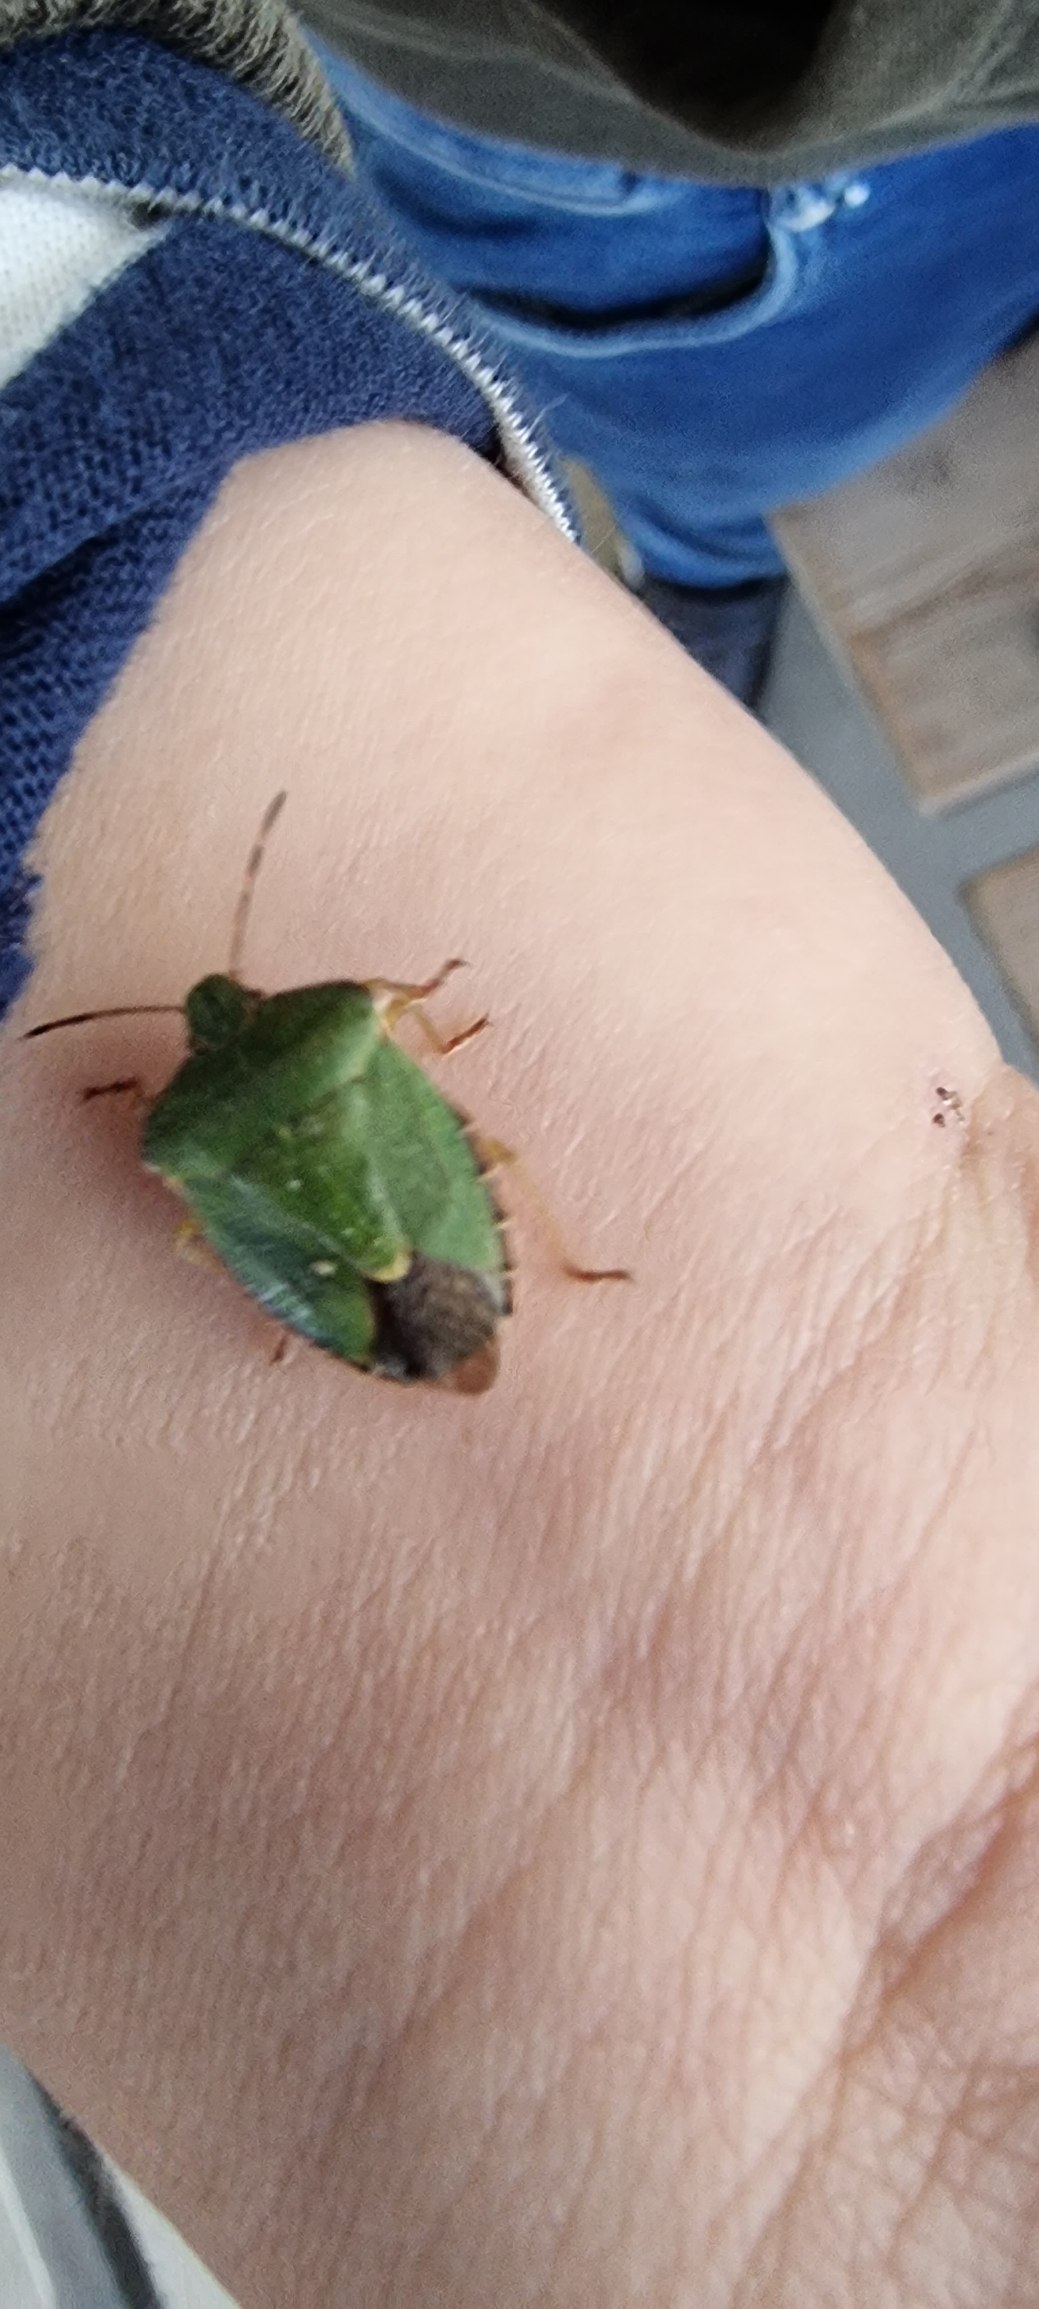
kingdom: Animalia
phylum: Arthropoda
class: Insecta
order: Hemiptera
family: Pentatomidae
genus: Palomena
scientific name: Palomena prasina
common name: Grøn bredtæge
